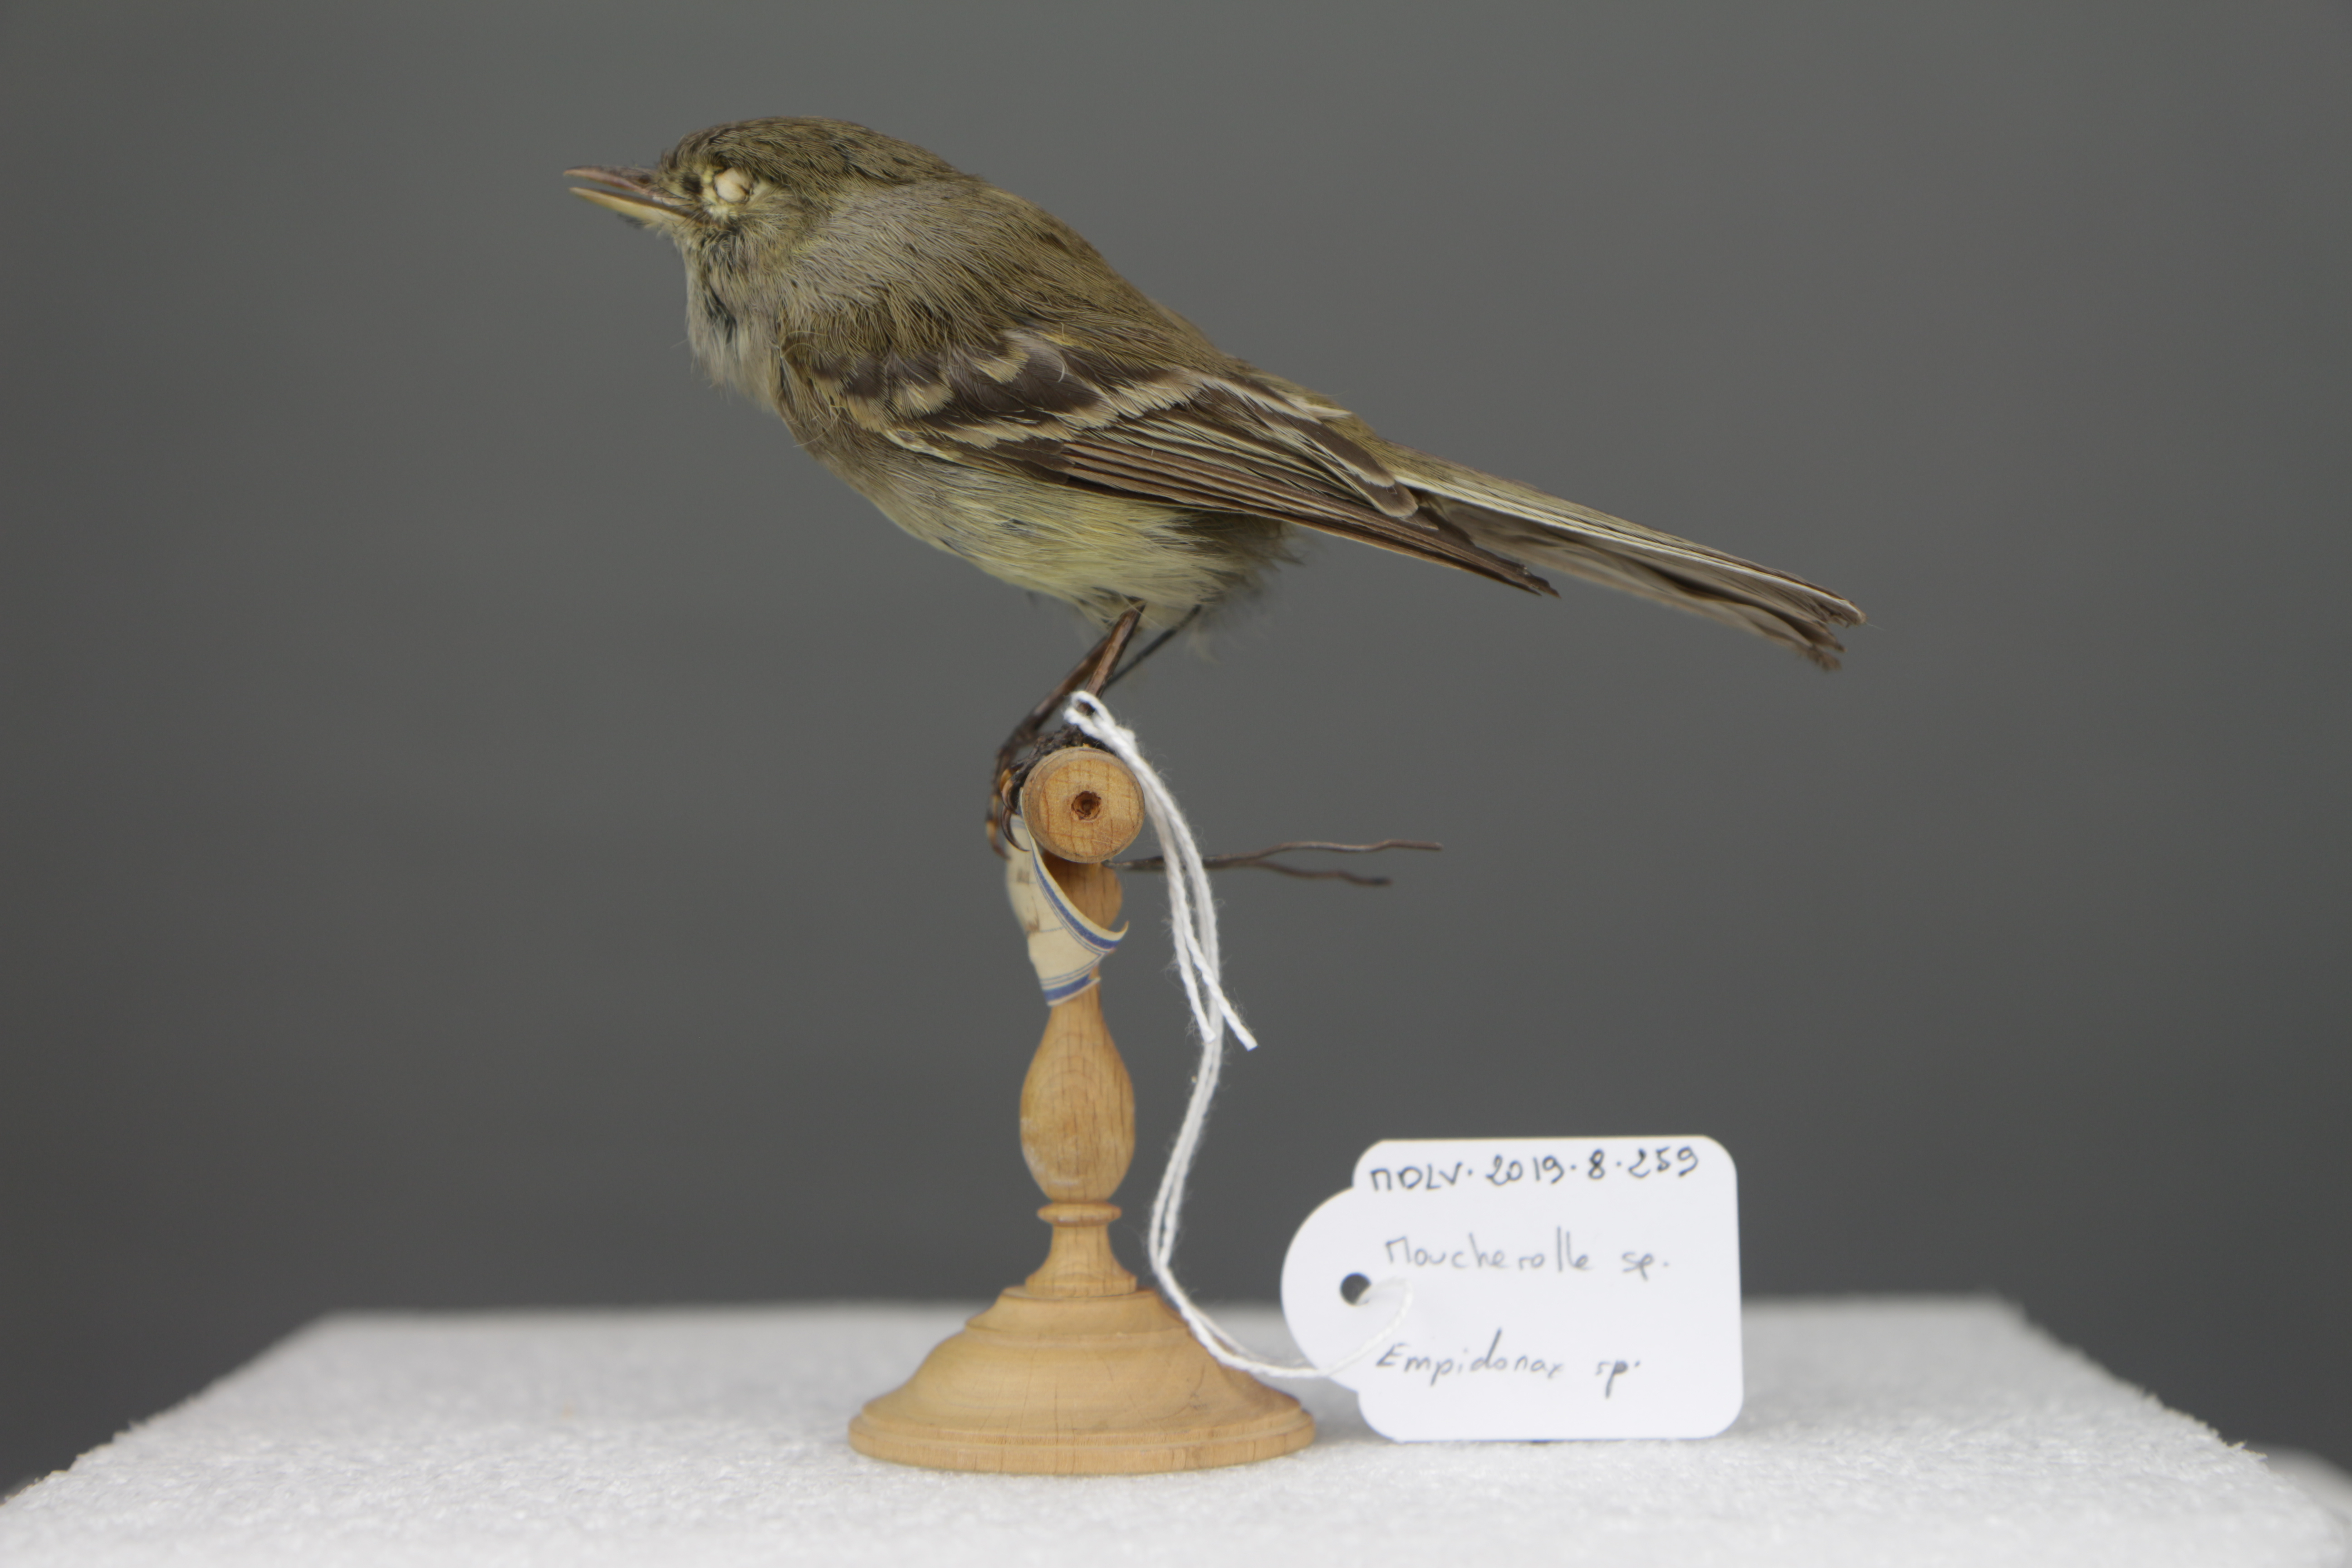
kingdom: Animalia
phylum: Chordata
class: Aves
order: Passeriformes
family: Tyrannidae
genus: Empidonax
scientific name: Empidonax
